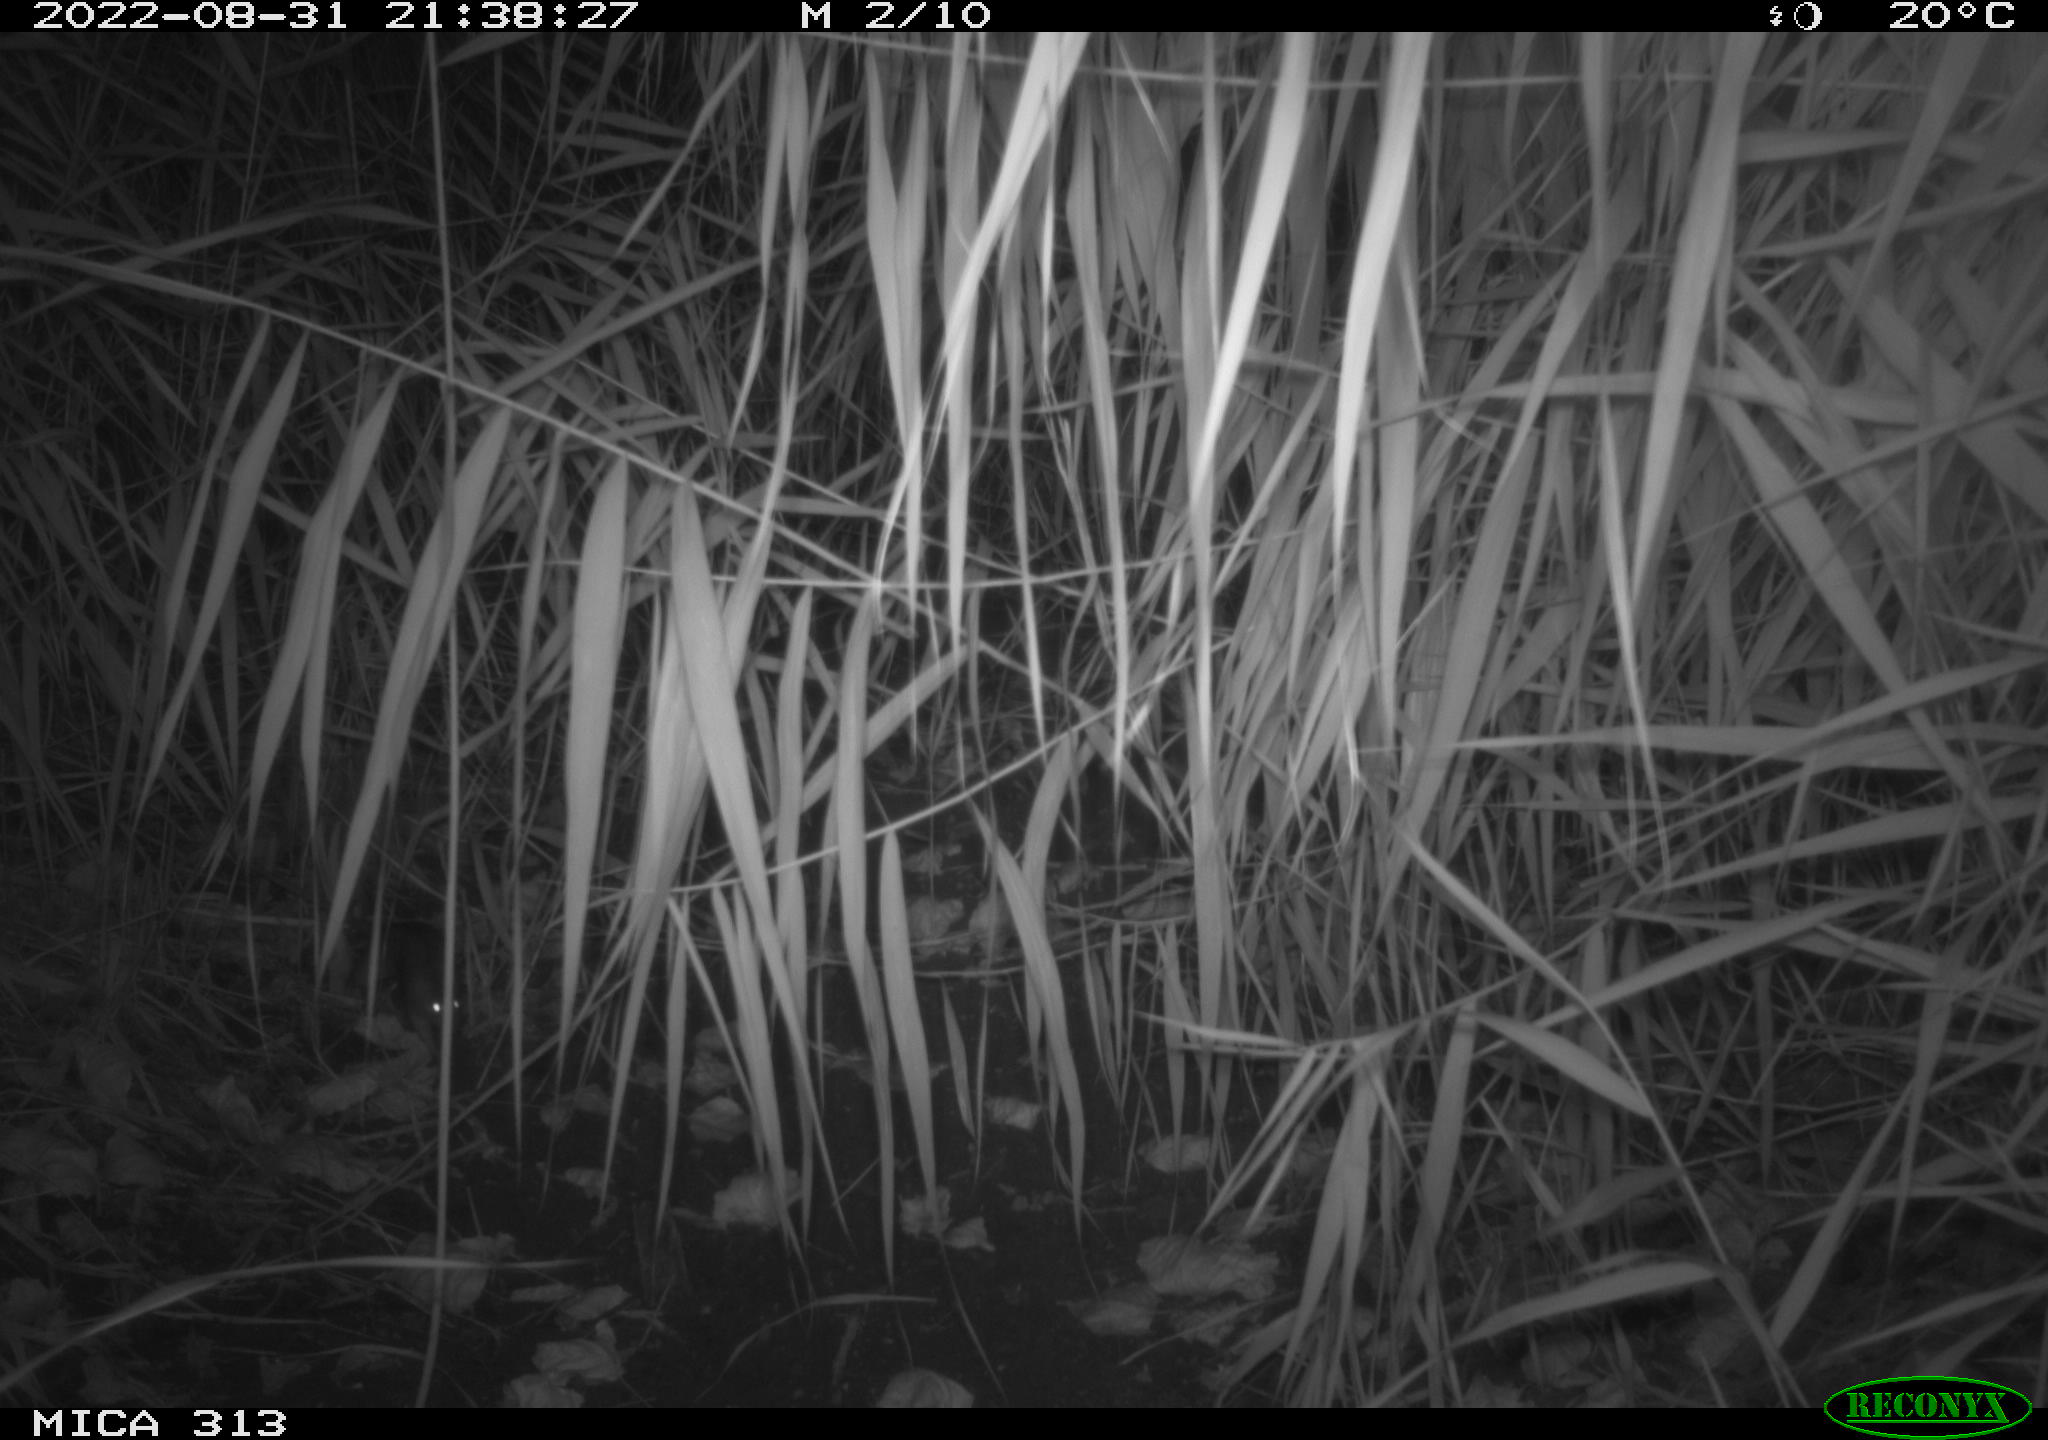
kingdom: Animalia
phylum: Chordata
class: Mammalia
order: Rodentia
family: Muridae
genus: Rattus
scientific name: Rattus norvegicus
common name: Brown rat
